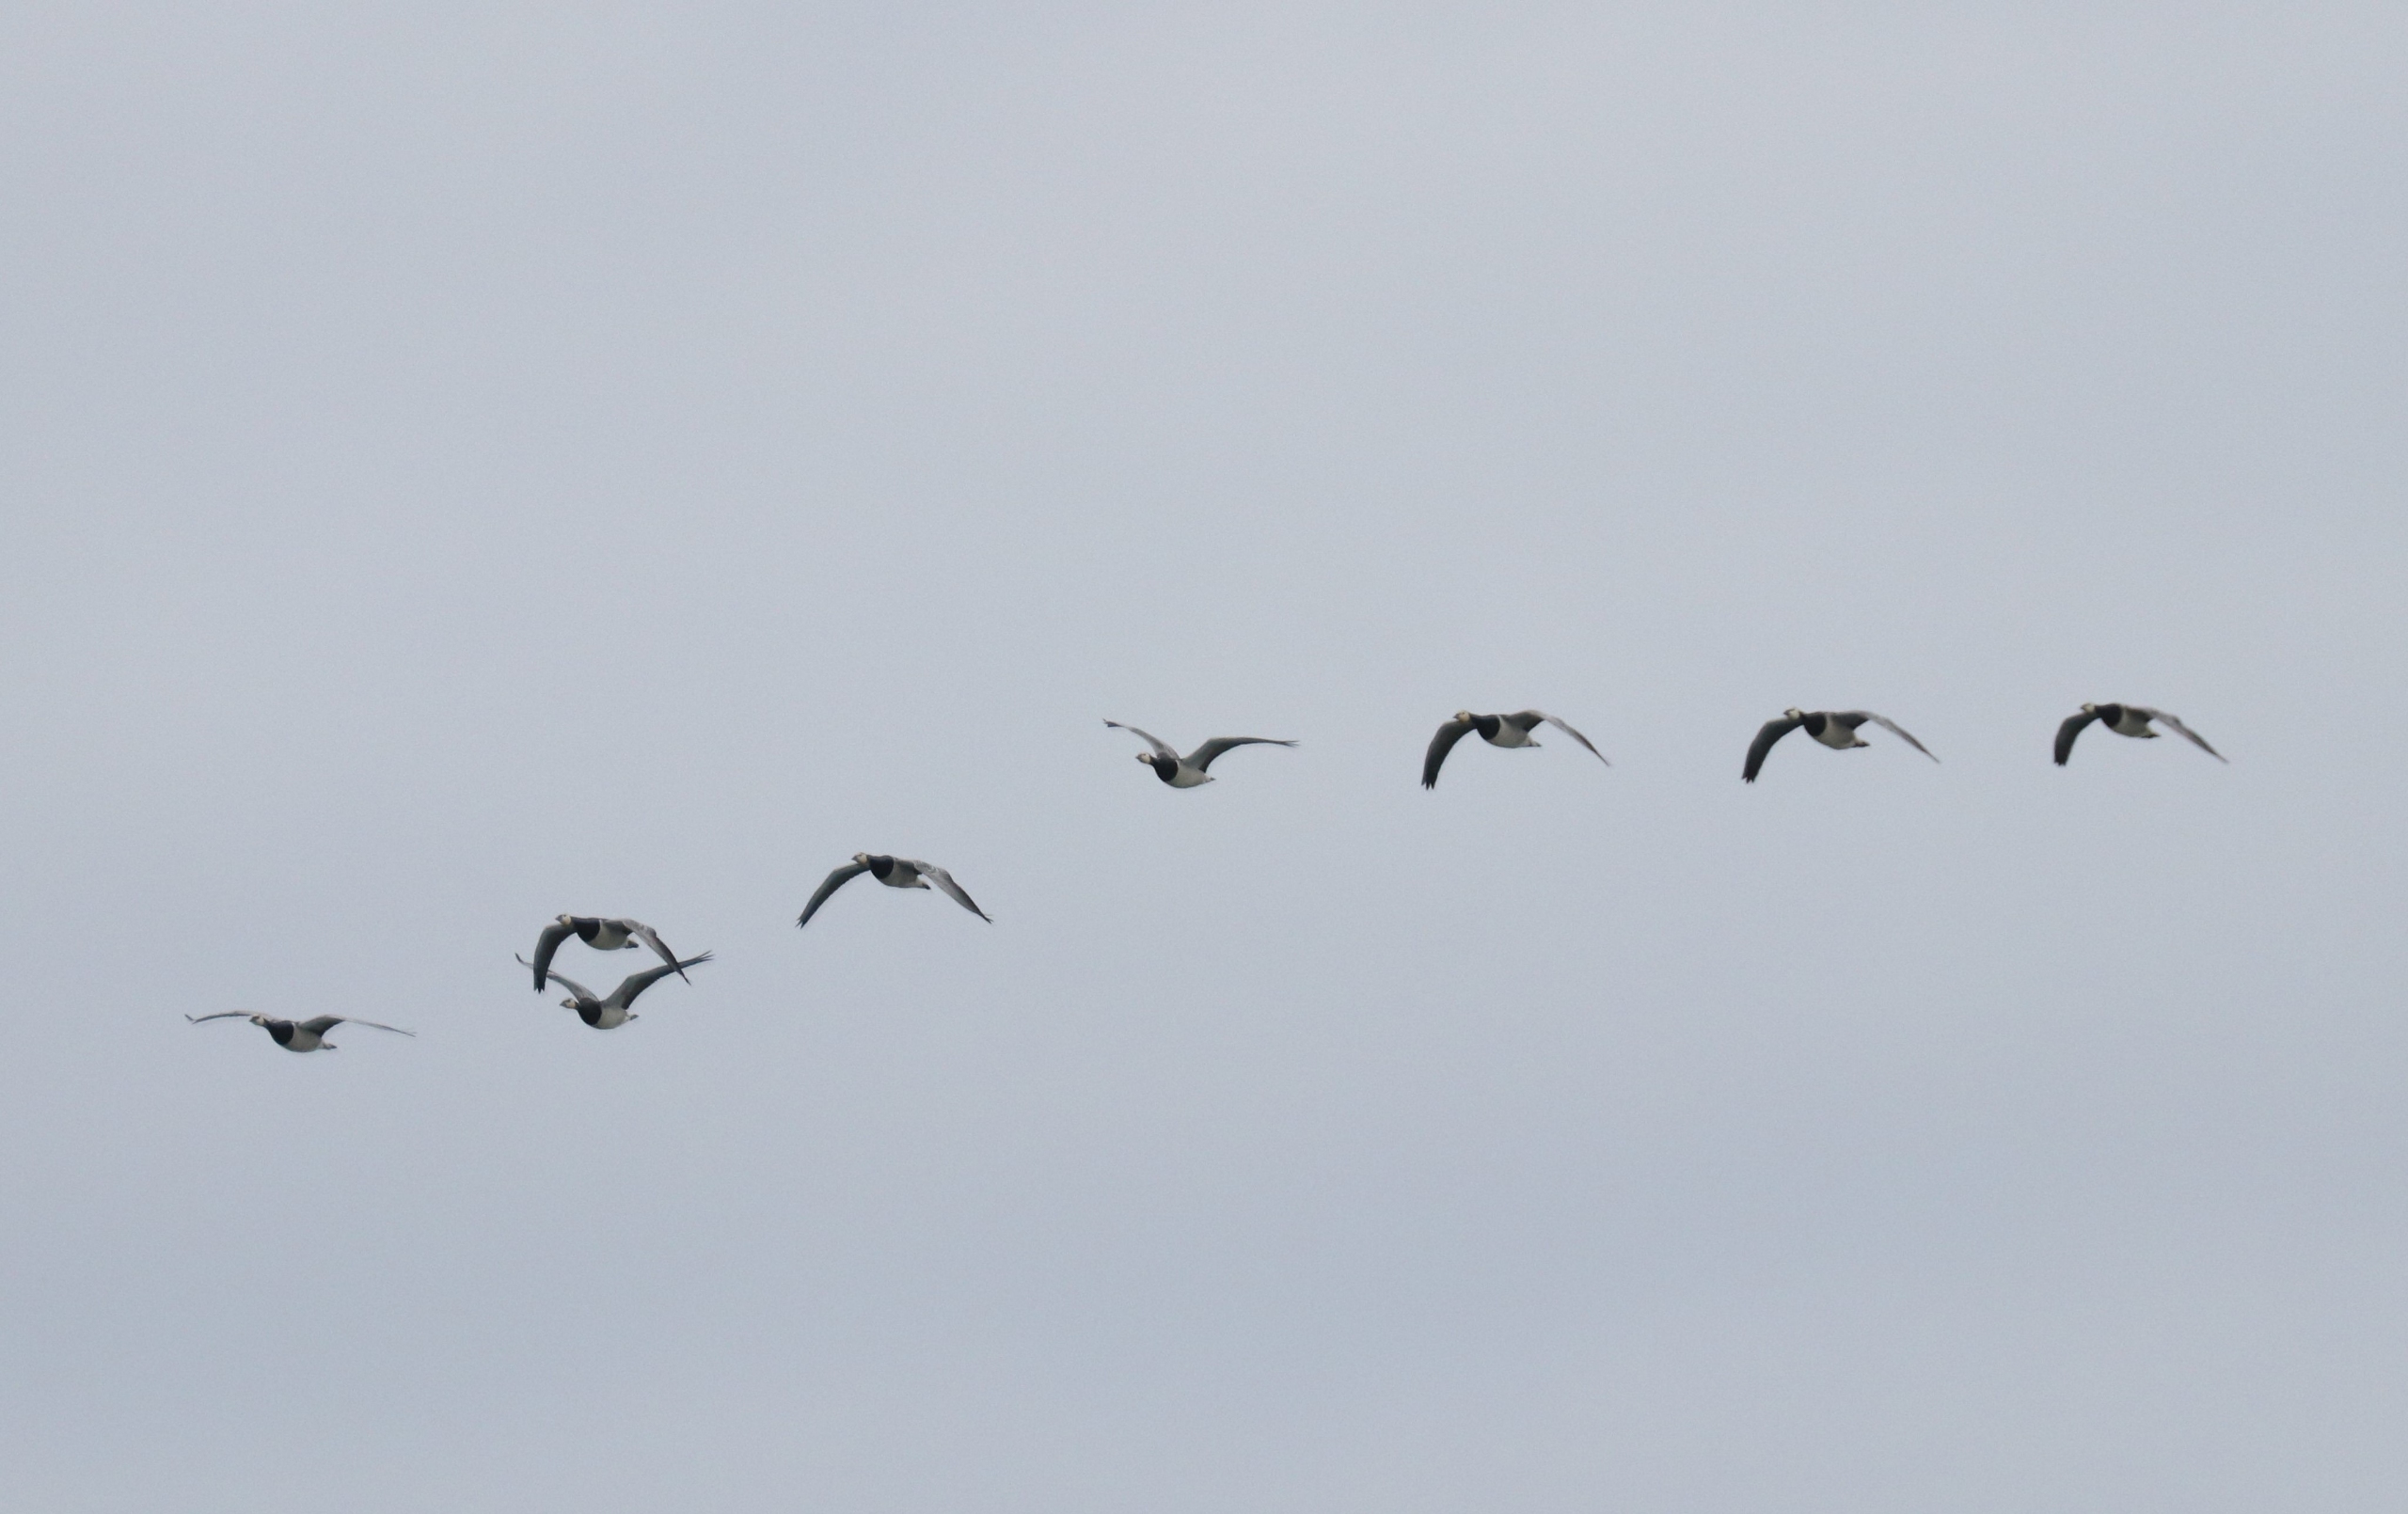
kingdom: Animalia
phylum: Chordata
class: Aves
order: Anseriformes
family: Anatidae
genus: Branta
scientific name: Branta leucopsis
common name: Bramgås
